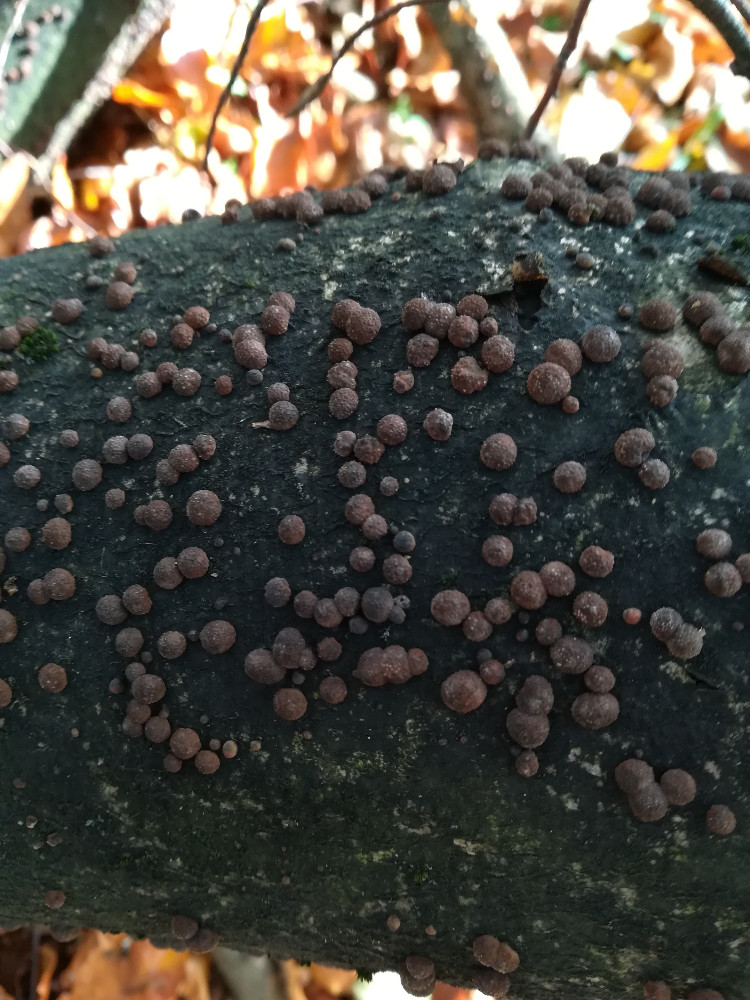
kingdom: Fungi
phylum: Ascomycota
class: Sordariomycetes
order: Xylariales
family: Hypoxylaceae
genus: Hypoxylon
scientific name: Hypoxylon fragiforme
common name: kuljordbær
